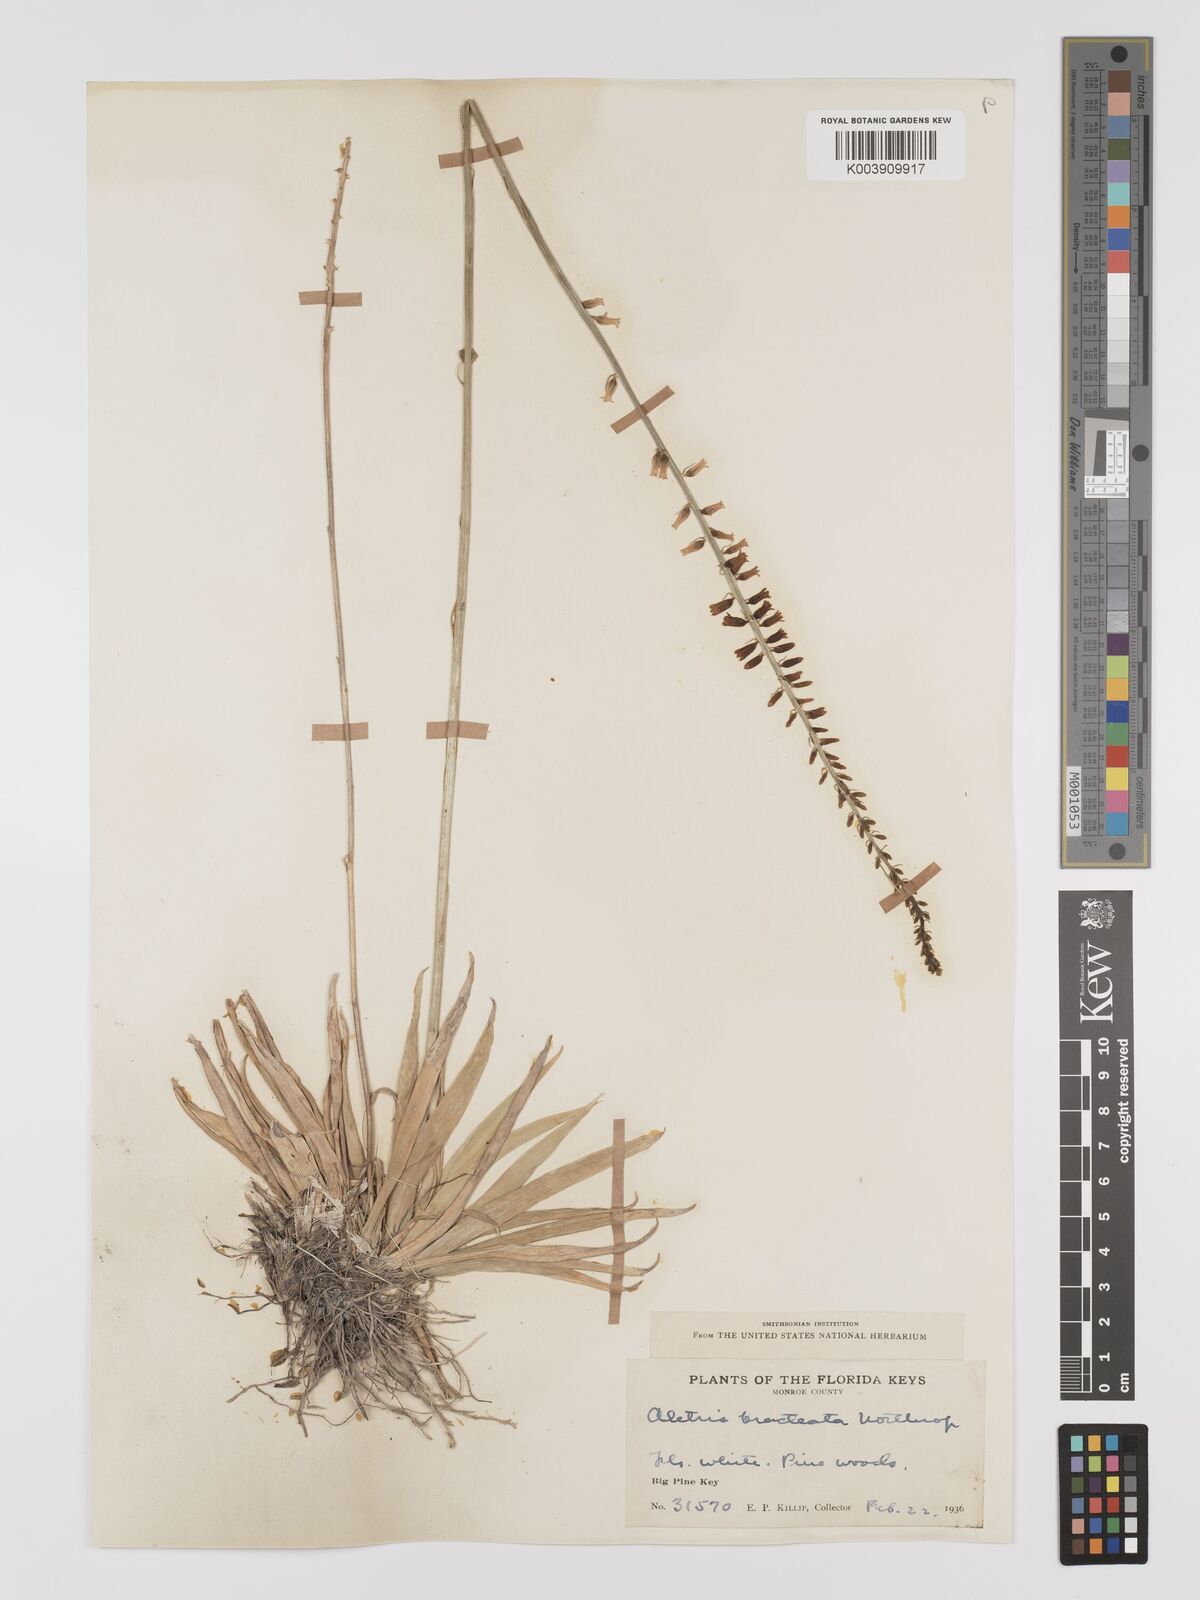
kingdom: Plantae
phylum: Tracheophyta
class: Liliopsida
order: Dioscoreales
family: Nartheciaceae
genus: Aletris
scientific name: Aletris bracteata
